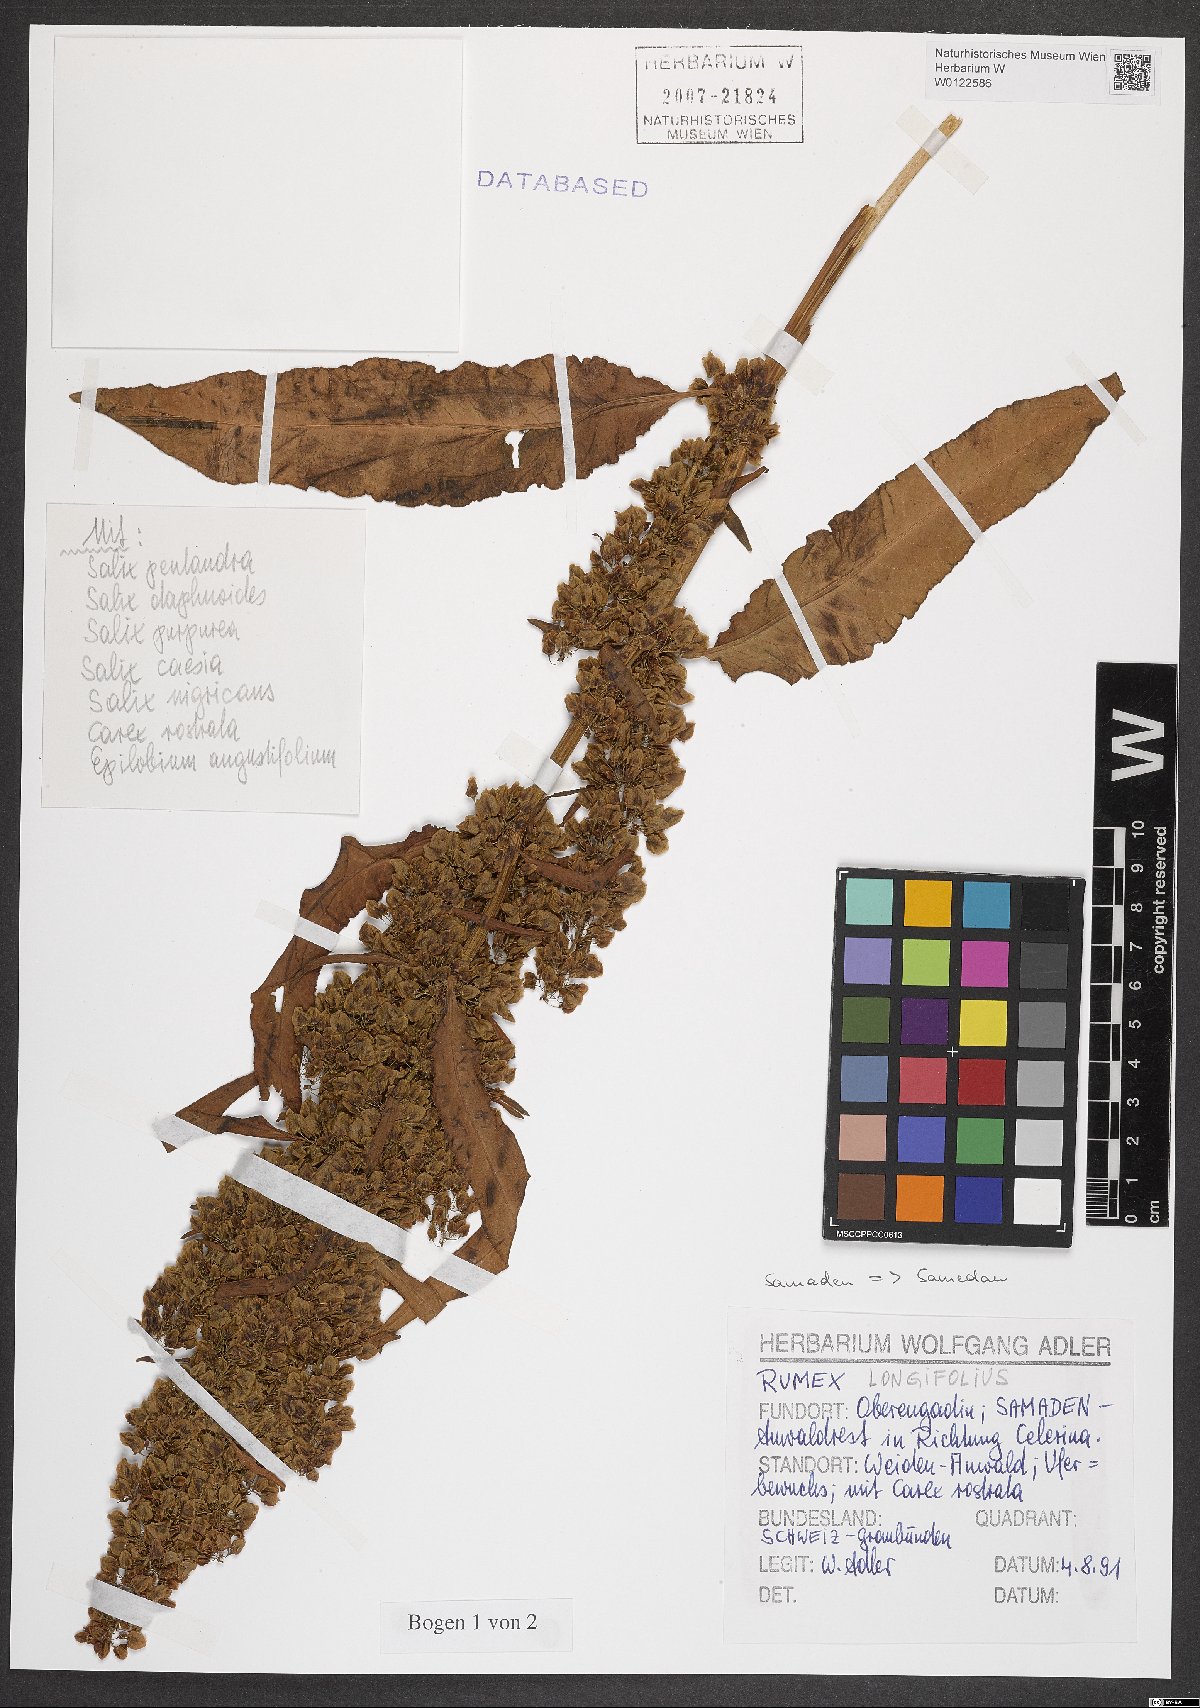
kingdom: Plantae
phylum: Tracheophyta
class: Magnoliopsida
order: Caryophyllales
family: Polygonaceae
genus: Rumex
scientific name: Rumex longifolius
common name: Dooryard dock
